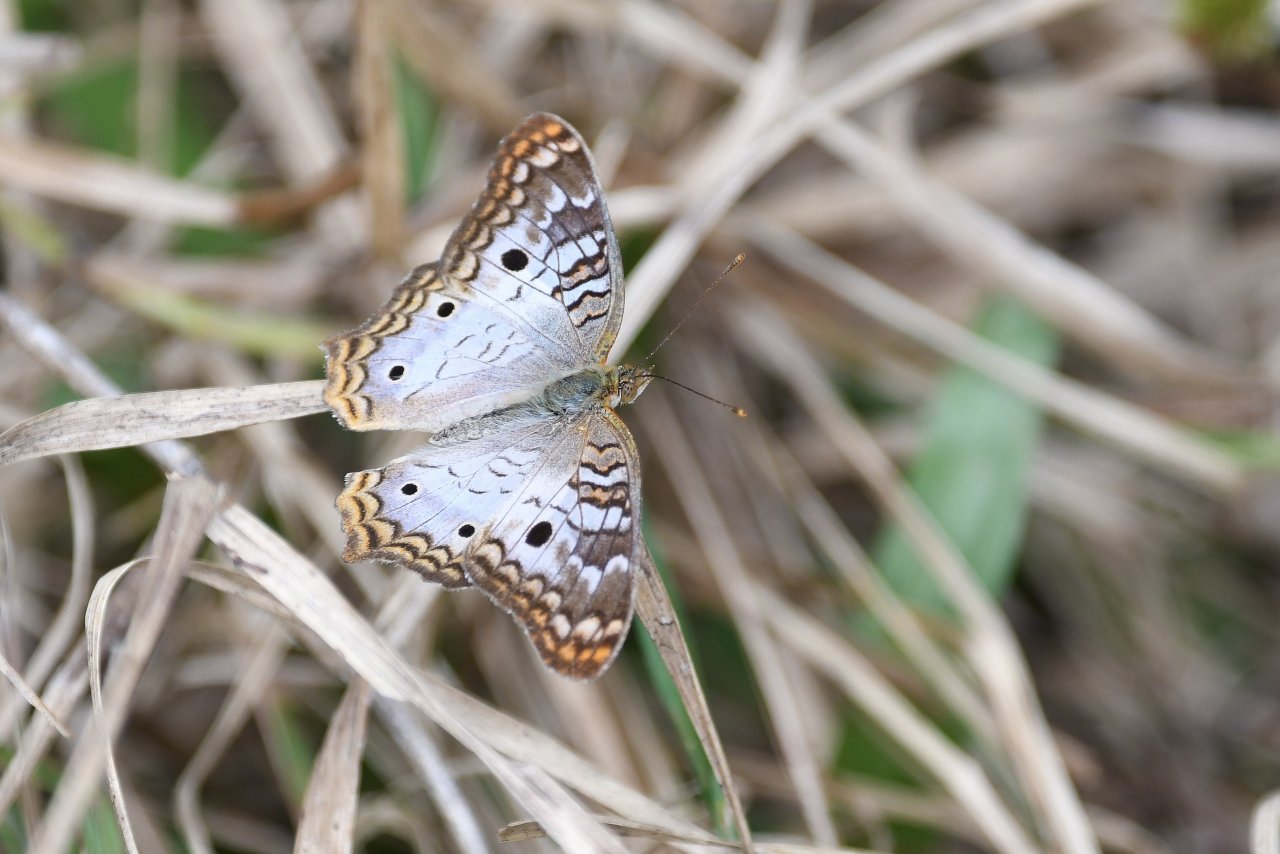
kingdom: Animalia
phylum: Arthropoda
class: Insecta
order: Lepidoptera
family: Nymphalidae
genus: Anartia
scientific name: Anartia jatrophae
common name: White Peacock
